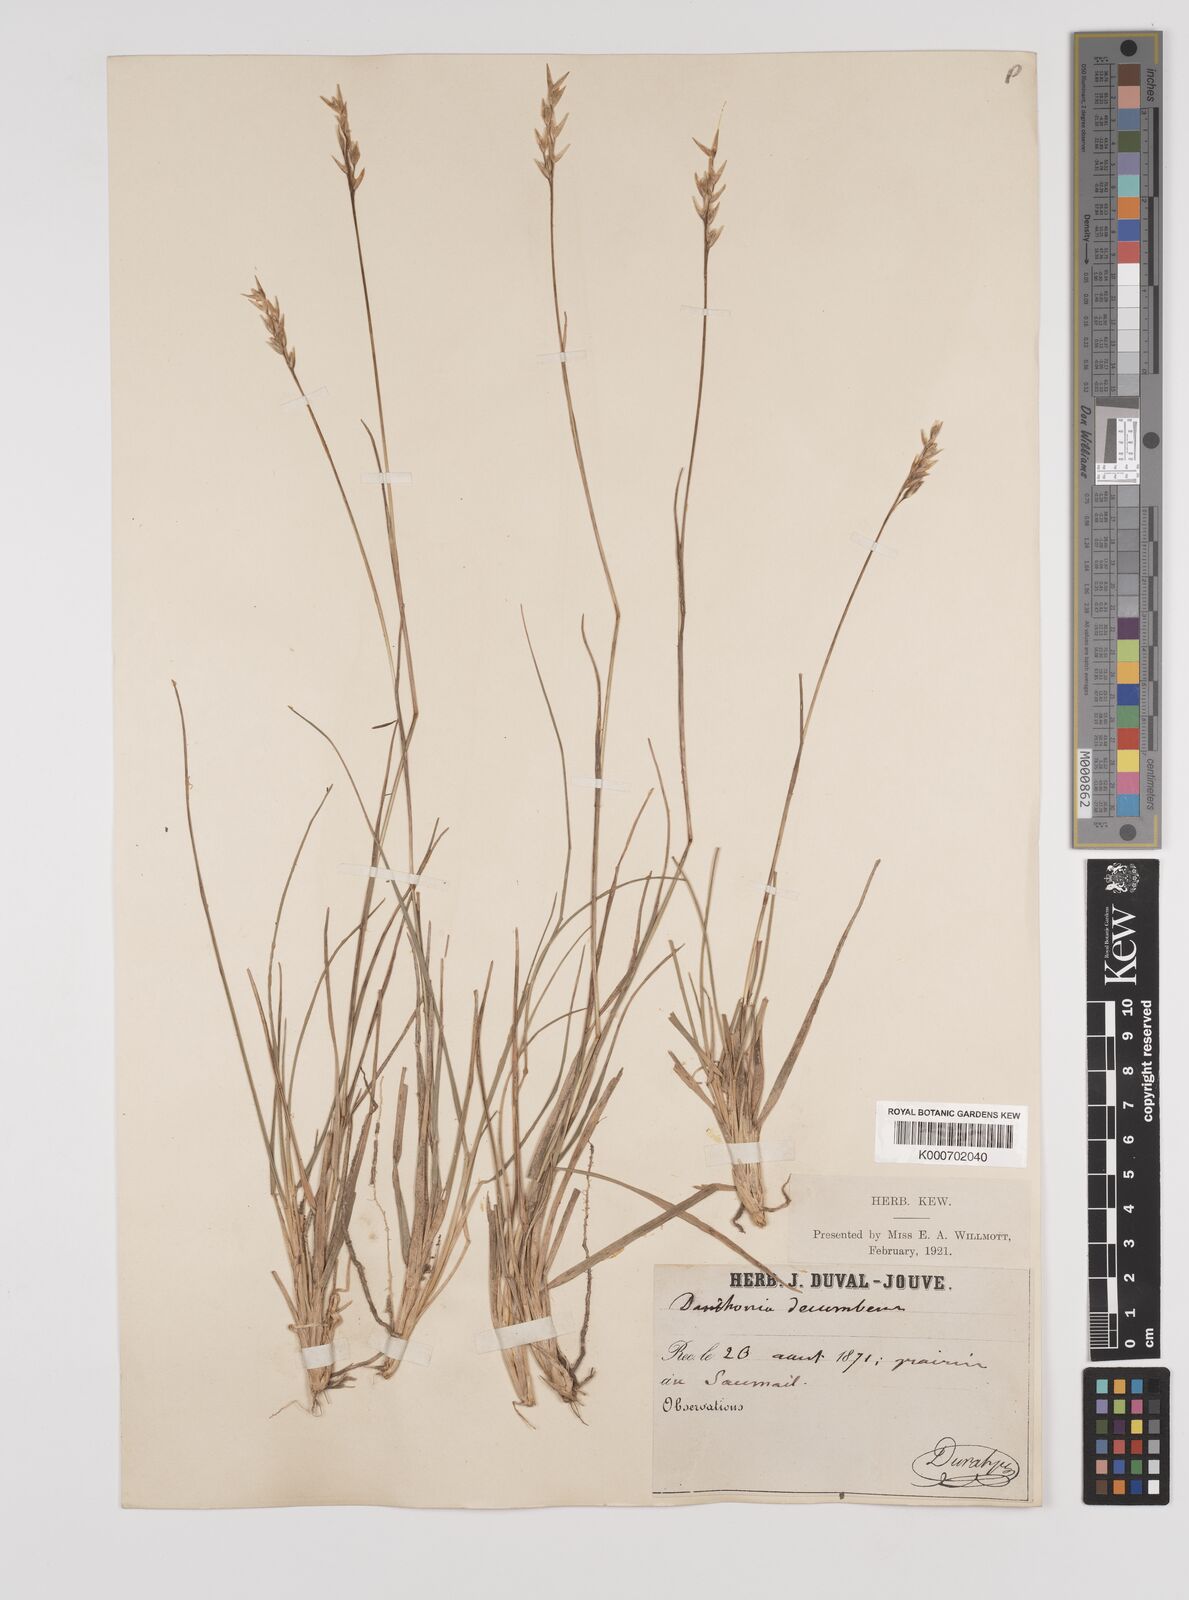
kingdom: Plantae
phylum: Tracheophyta
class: Liliopsida
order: Poales
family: Poaceae
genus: Danthonia
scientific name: Danthonia decumbens
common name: Common heathgrass
